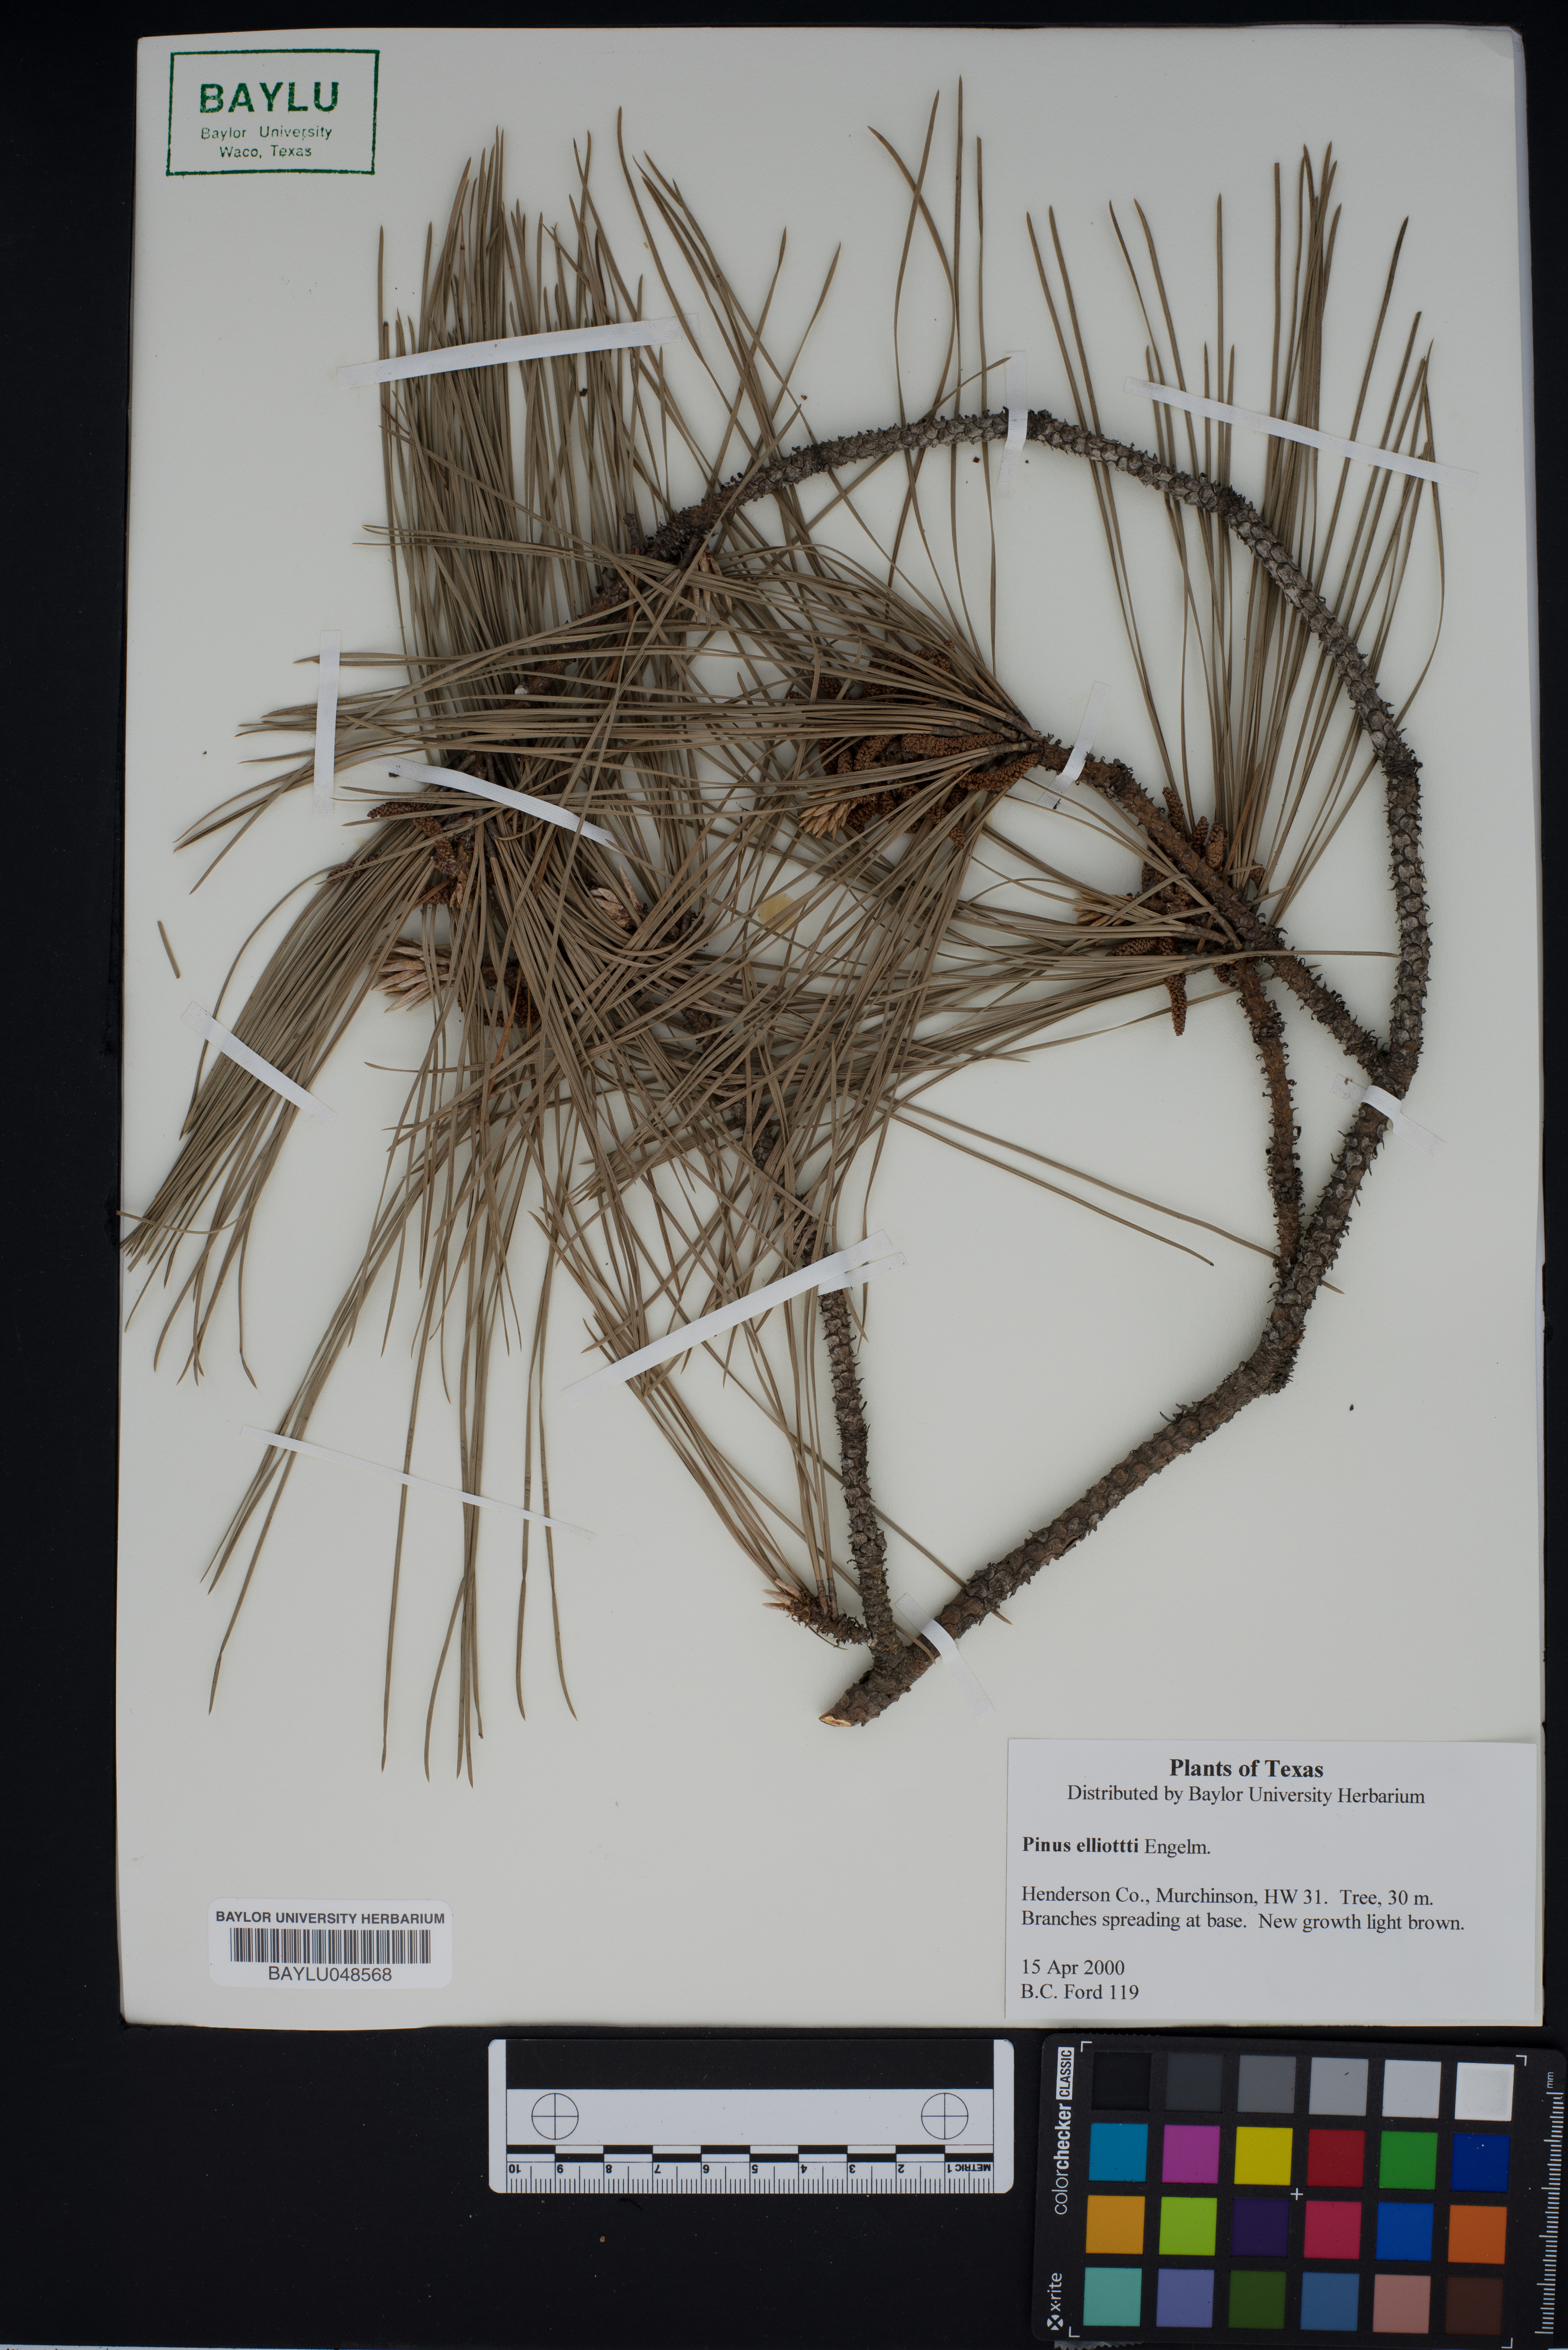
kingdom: Plantae
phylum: Tracheophyta
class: Pinopsida
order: Pinales
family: Pinaceae
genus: Pinus
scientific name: Pinus elliottii
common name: Slash pine
